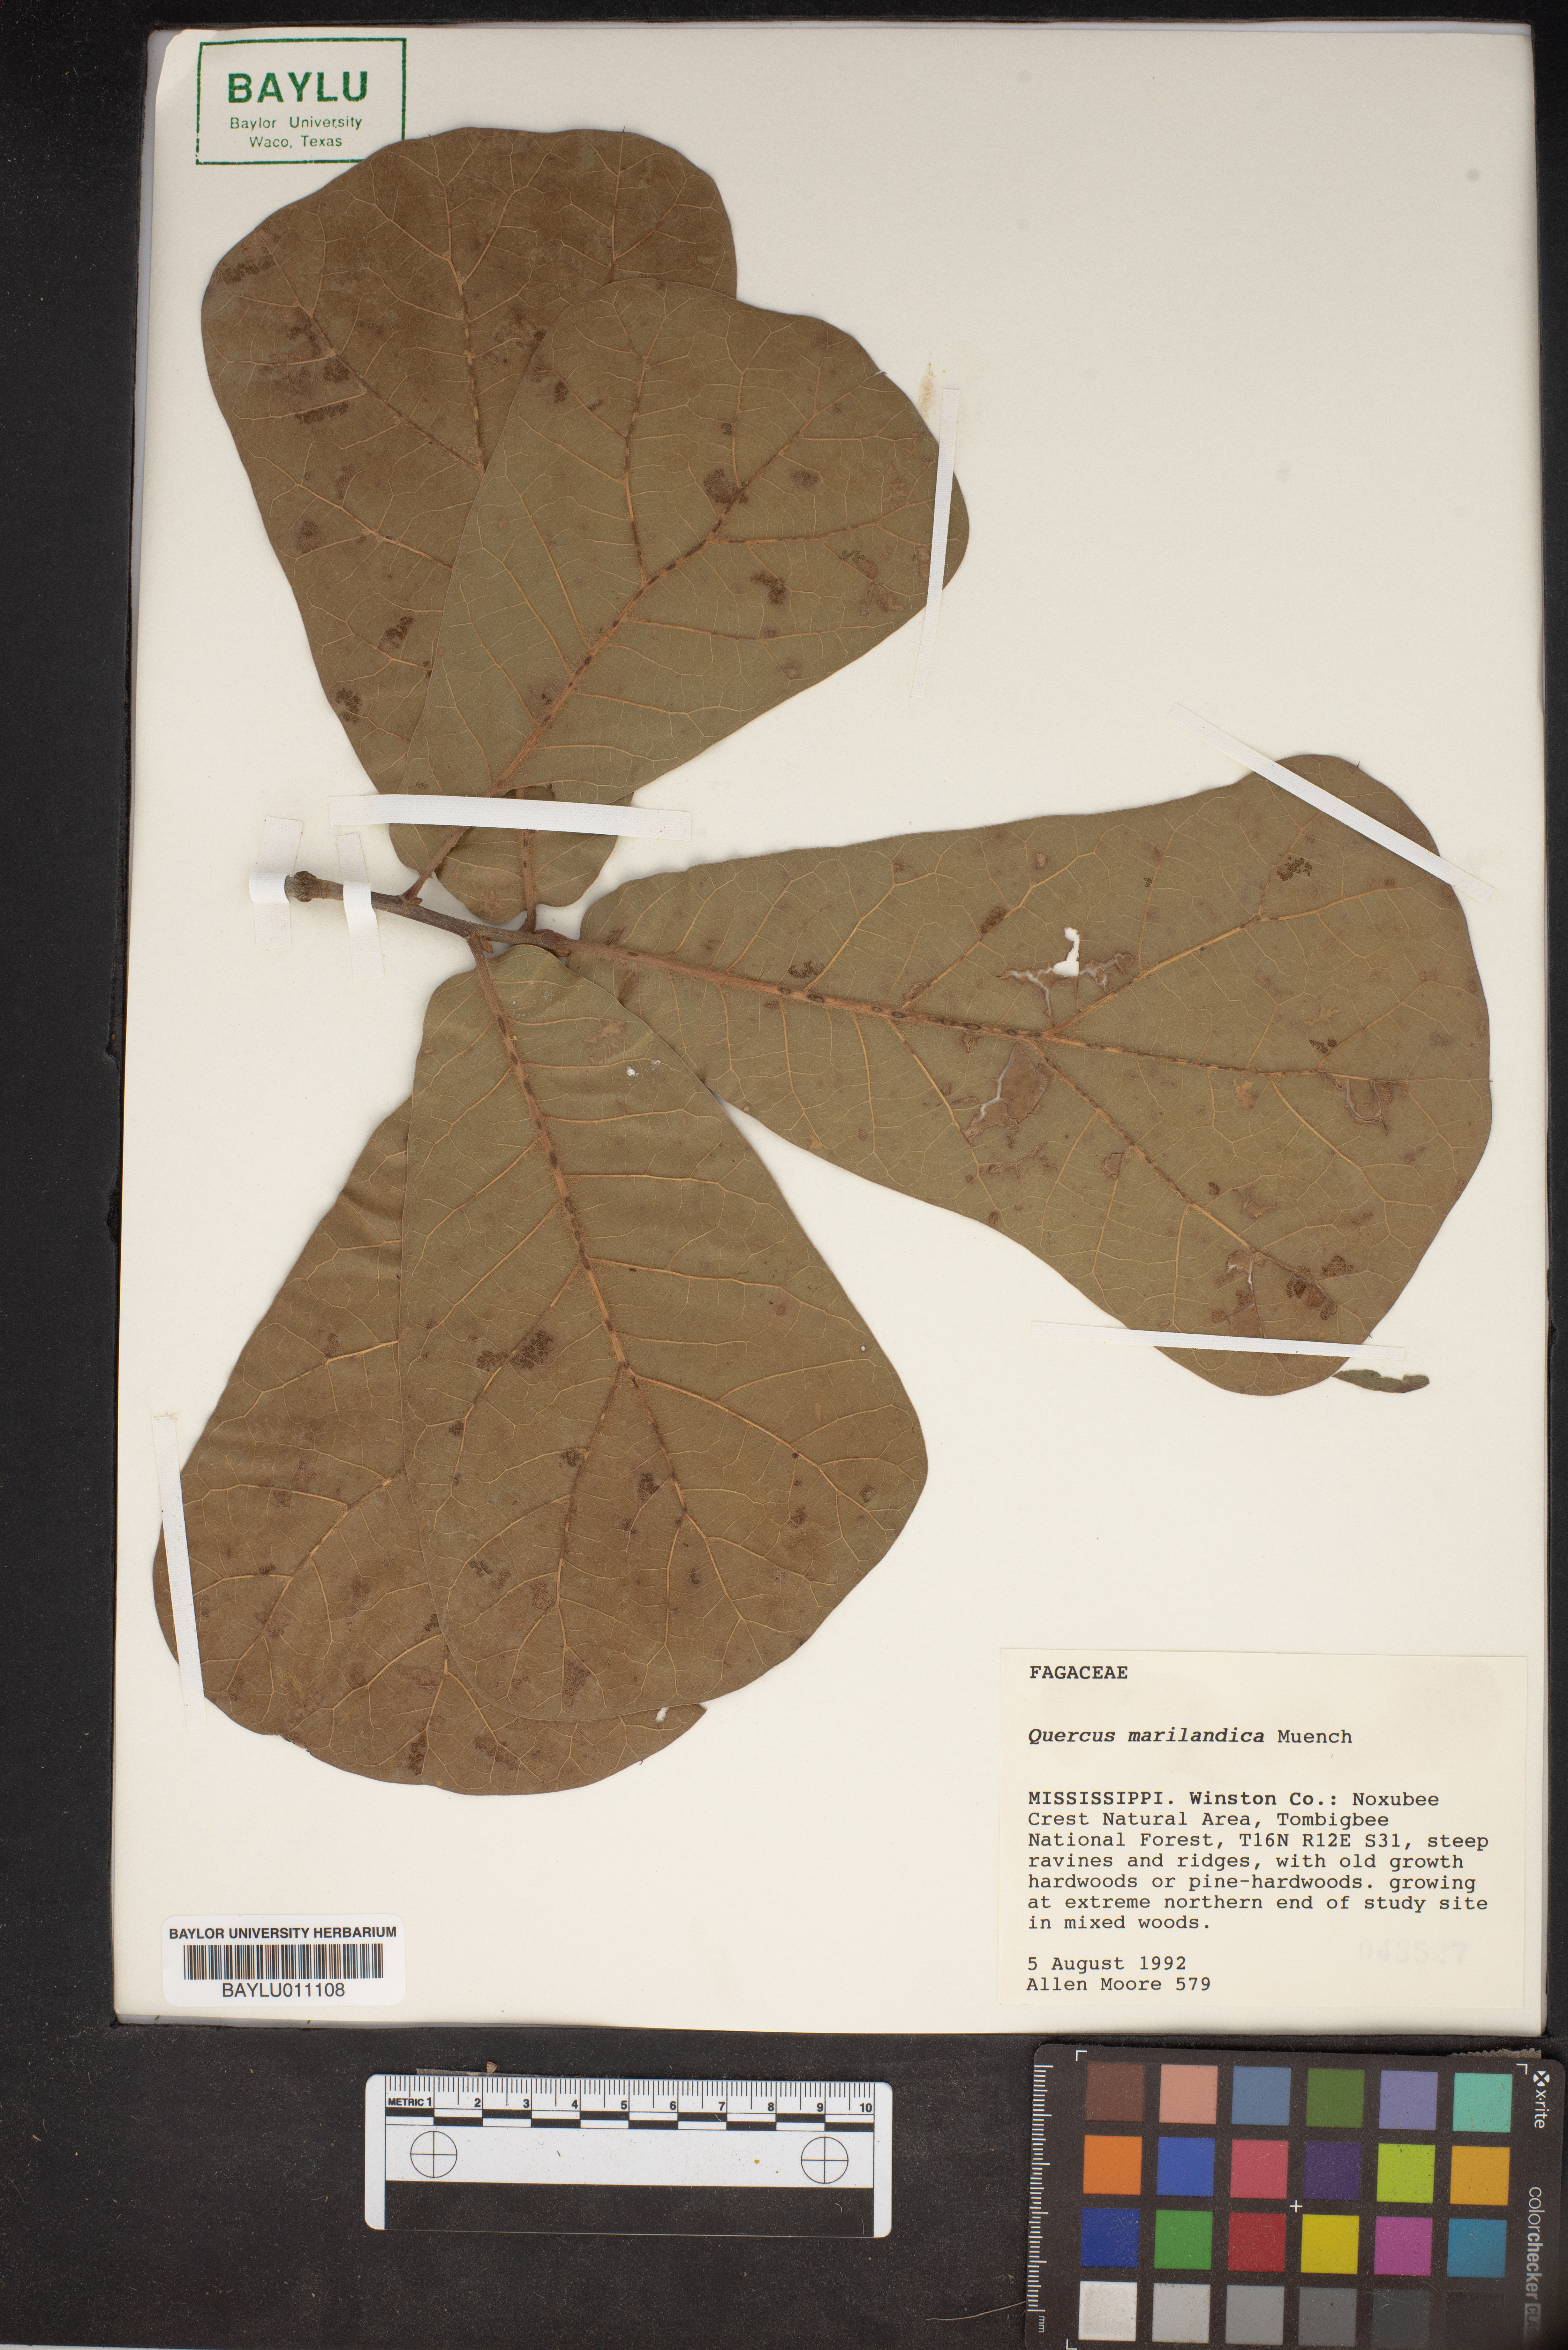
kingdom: Plantae
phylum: Tracheophyta
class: Magnoliopsida
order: Fagales
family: Fagaceae
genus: Quercus
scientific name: Quercus marilandica
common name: Blackjack oak
